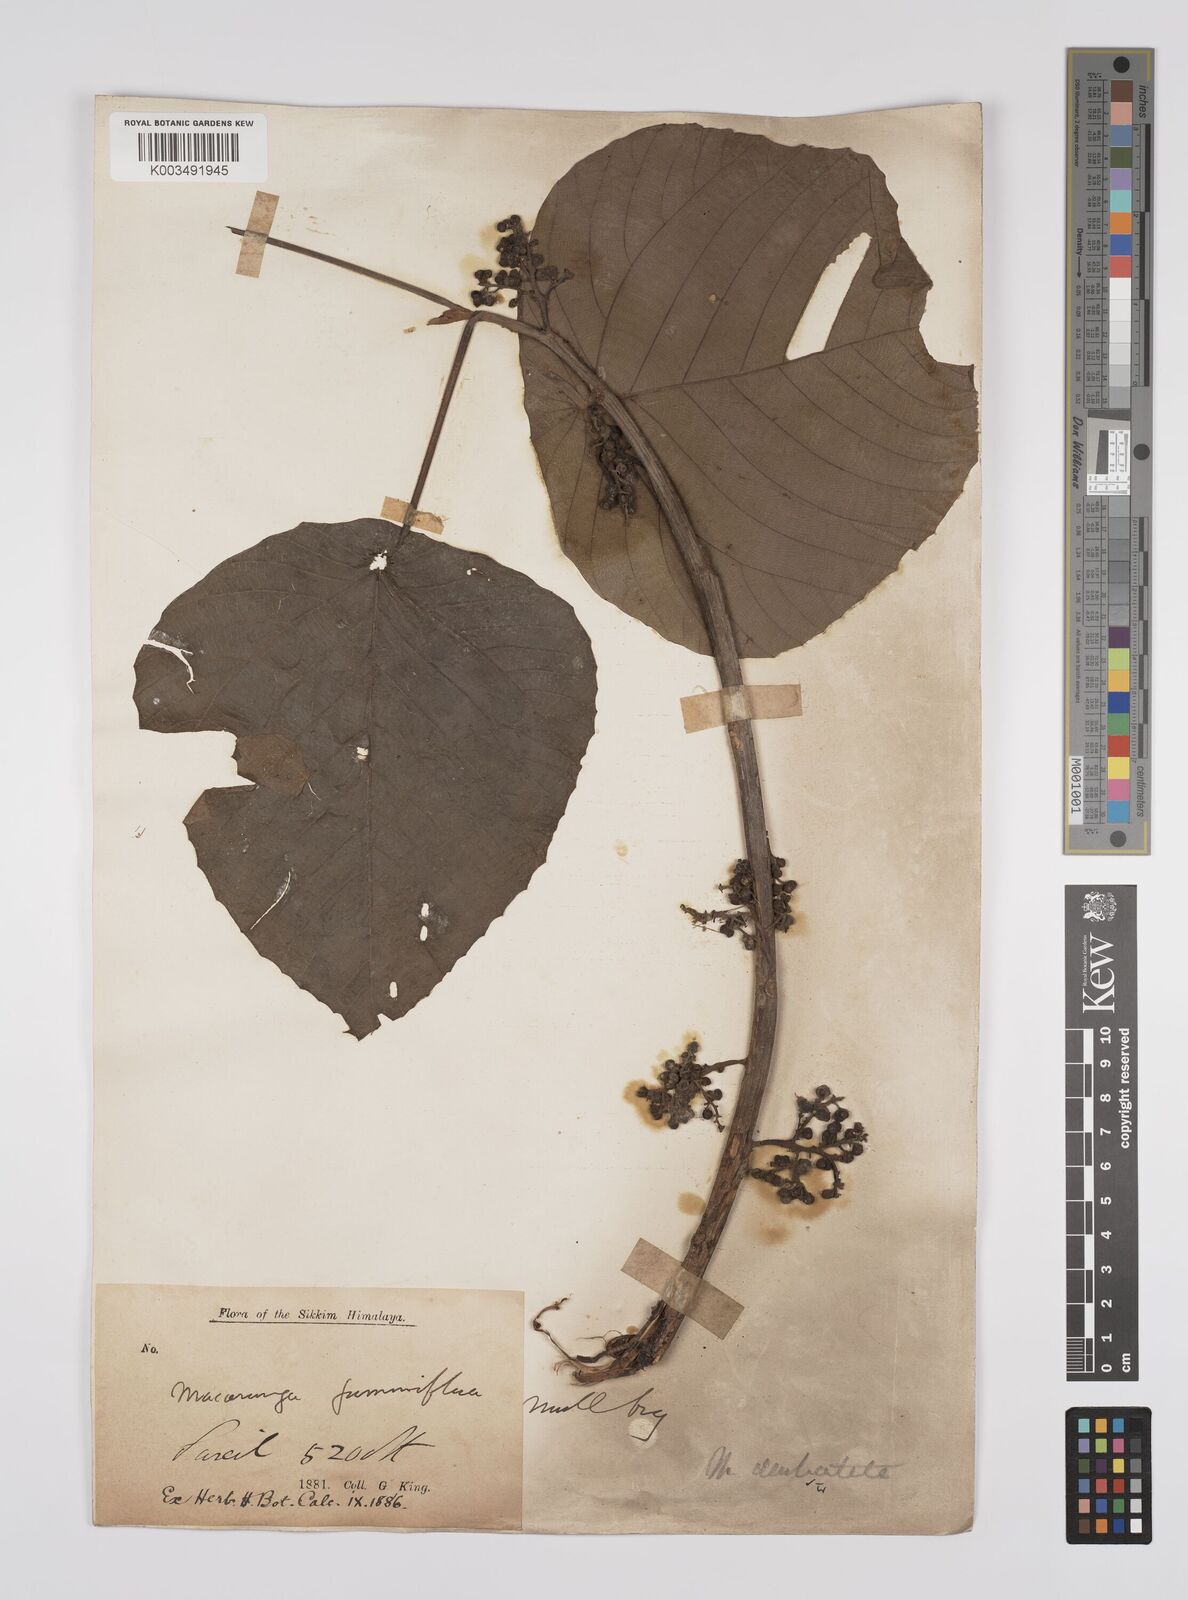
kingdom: Plantae
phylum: Tracheophyta
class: Magnoliopsida
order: Malpighiales
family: Euphorbiaceae
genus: Macaranga
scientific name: Macaranga denticulata
